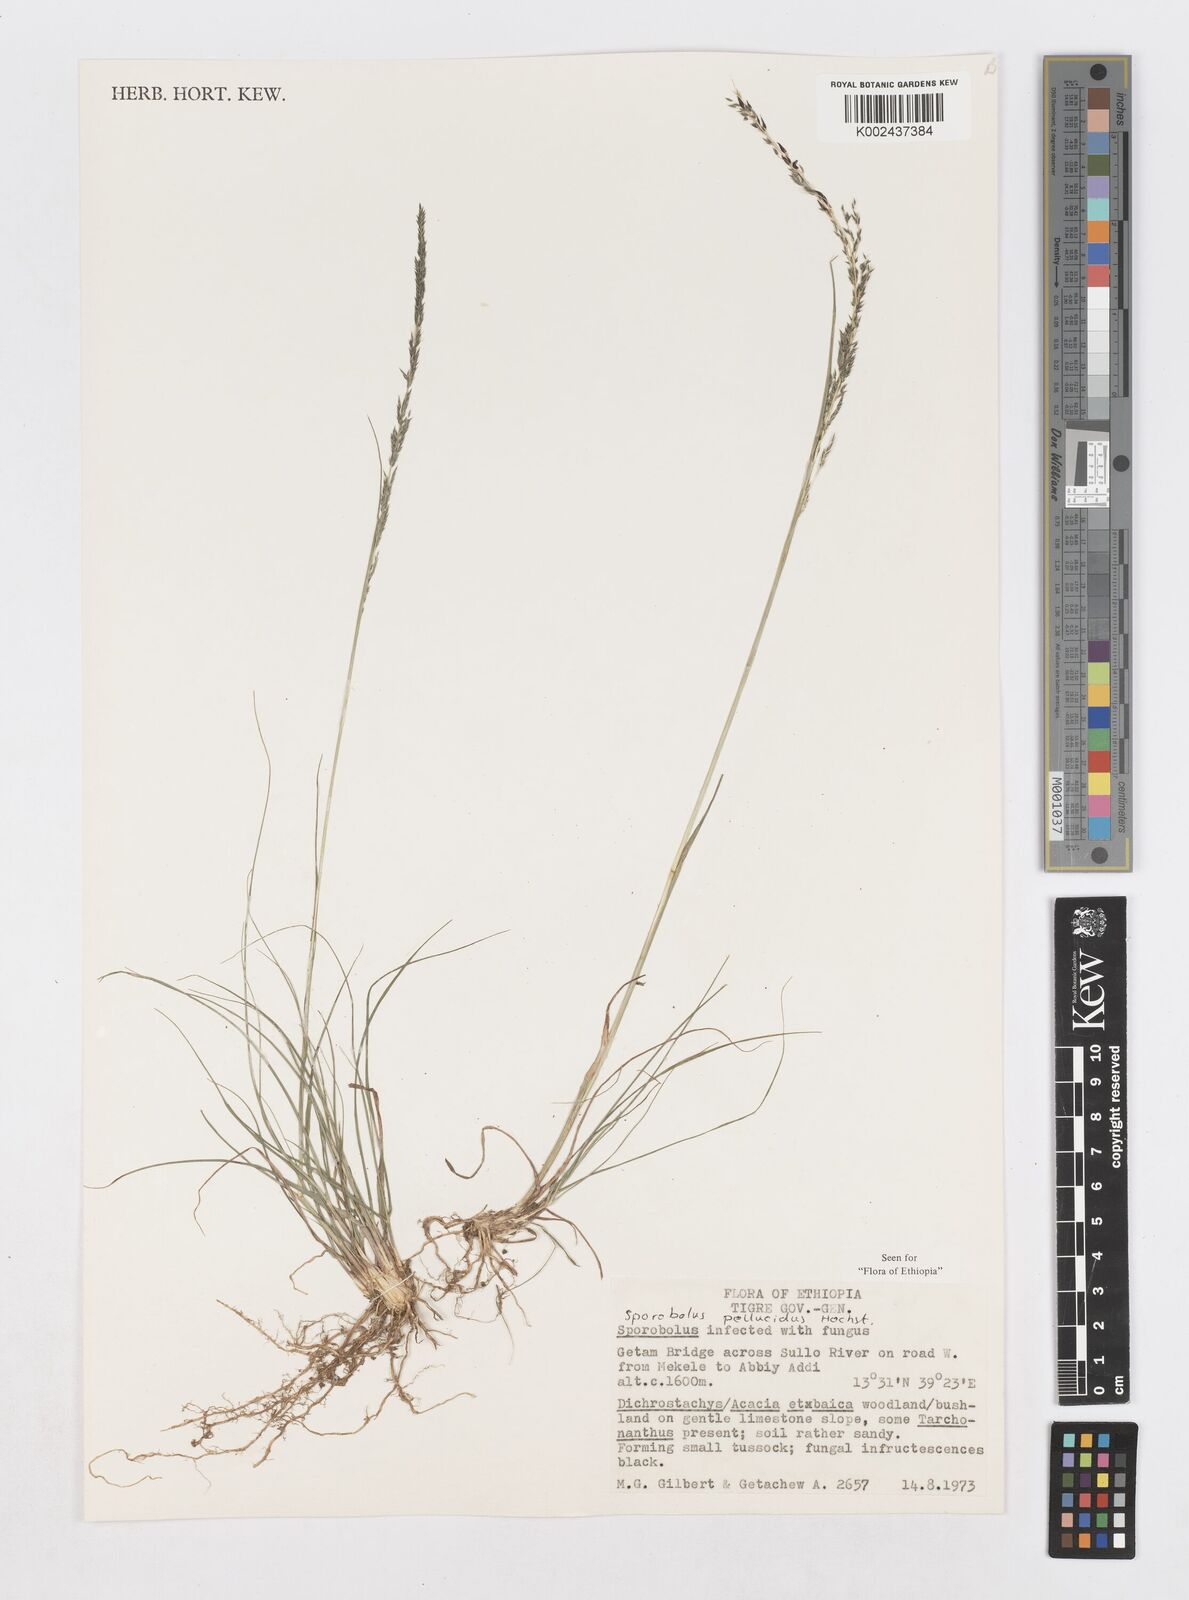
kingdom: Plantae
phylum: Tracheophyta
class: Liliopsida
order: Poales
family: Poaceae
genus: Sporobolus
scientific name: Sporobolus pellucidus
